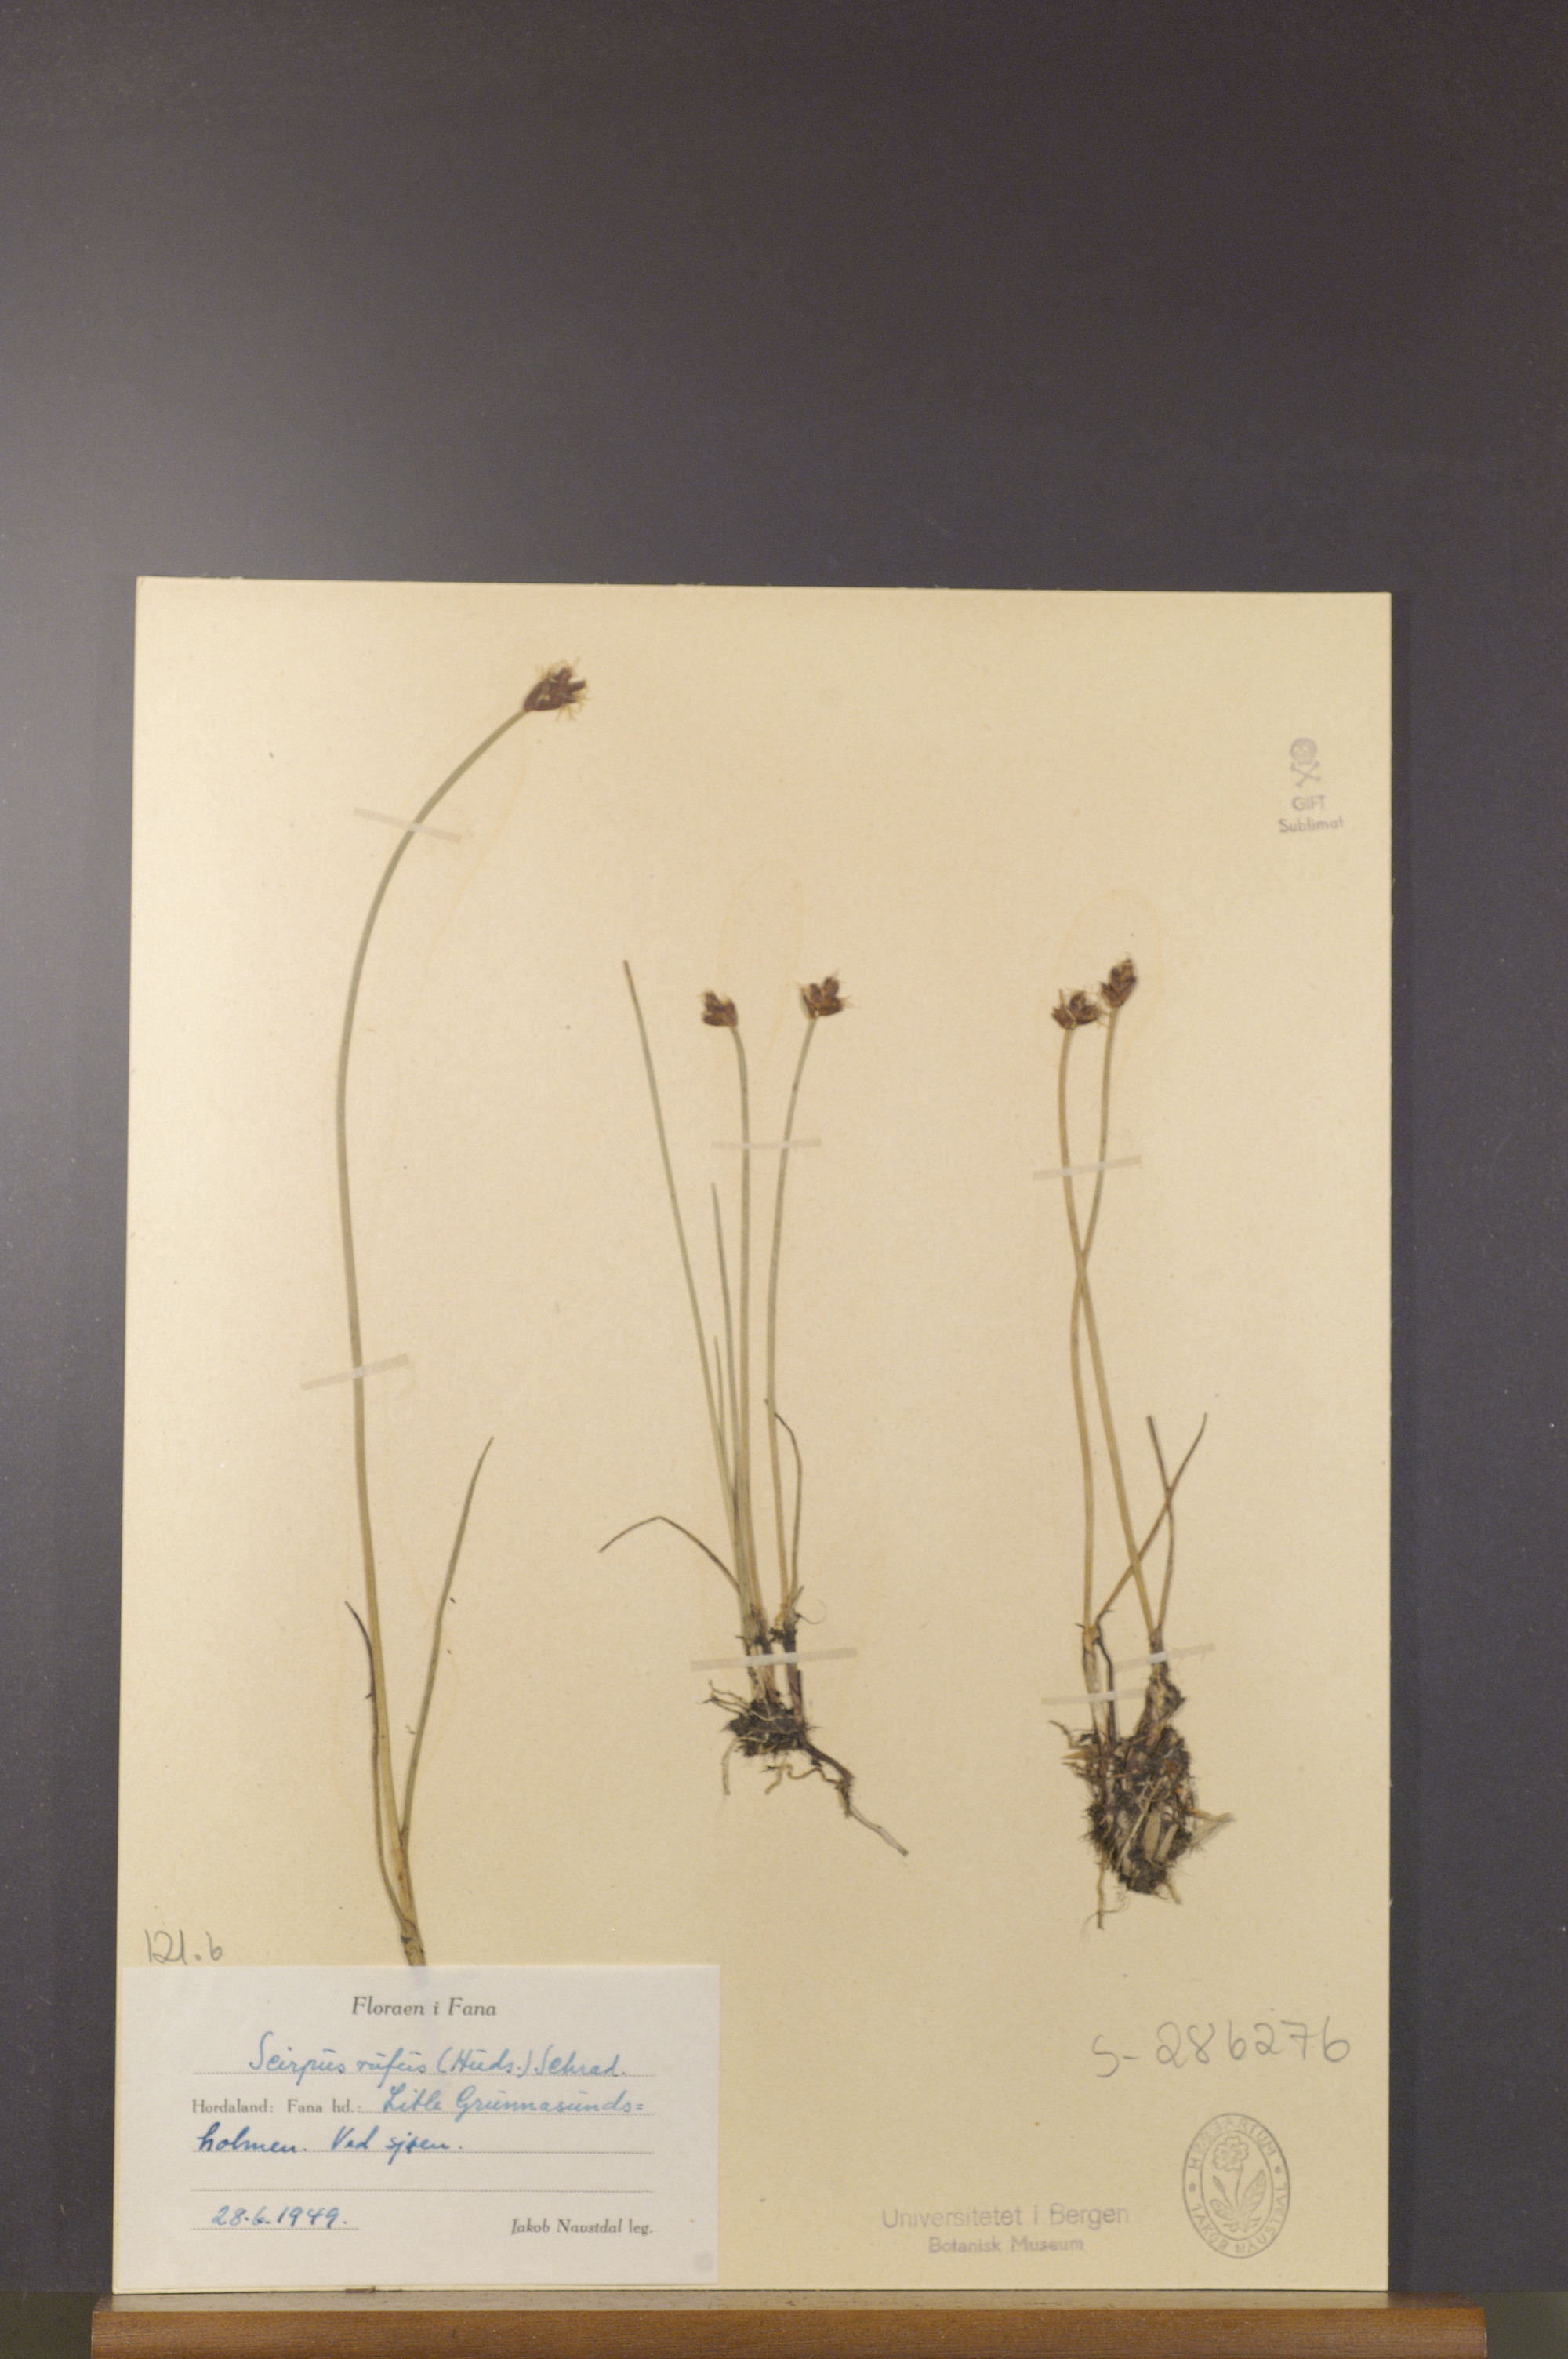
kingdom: Plantae
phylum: Tracheophyta
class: Liliopsida
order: Poales
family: Cyperaceae
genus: Blysmus
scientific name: Blysmus rufus
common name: Saltmarsh flat-sedge
